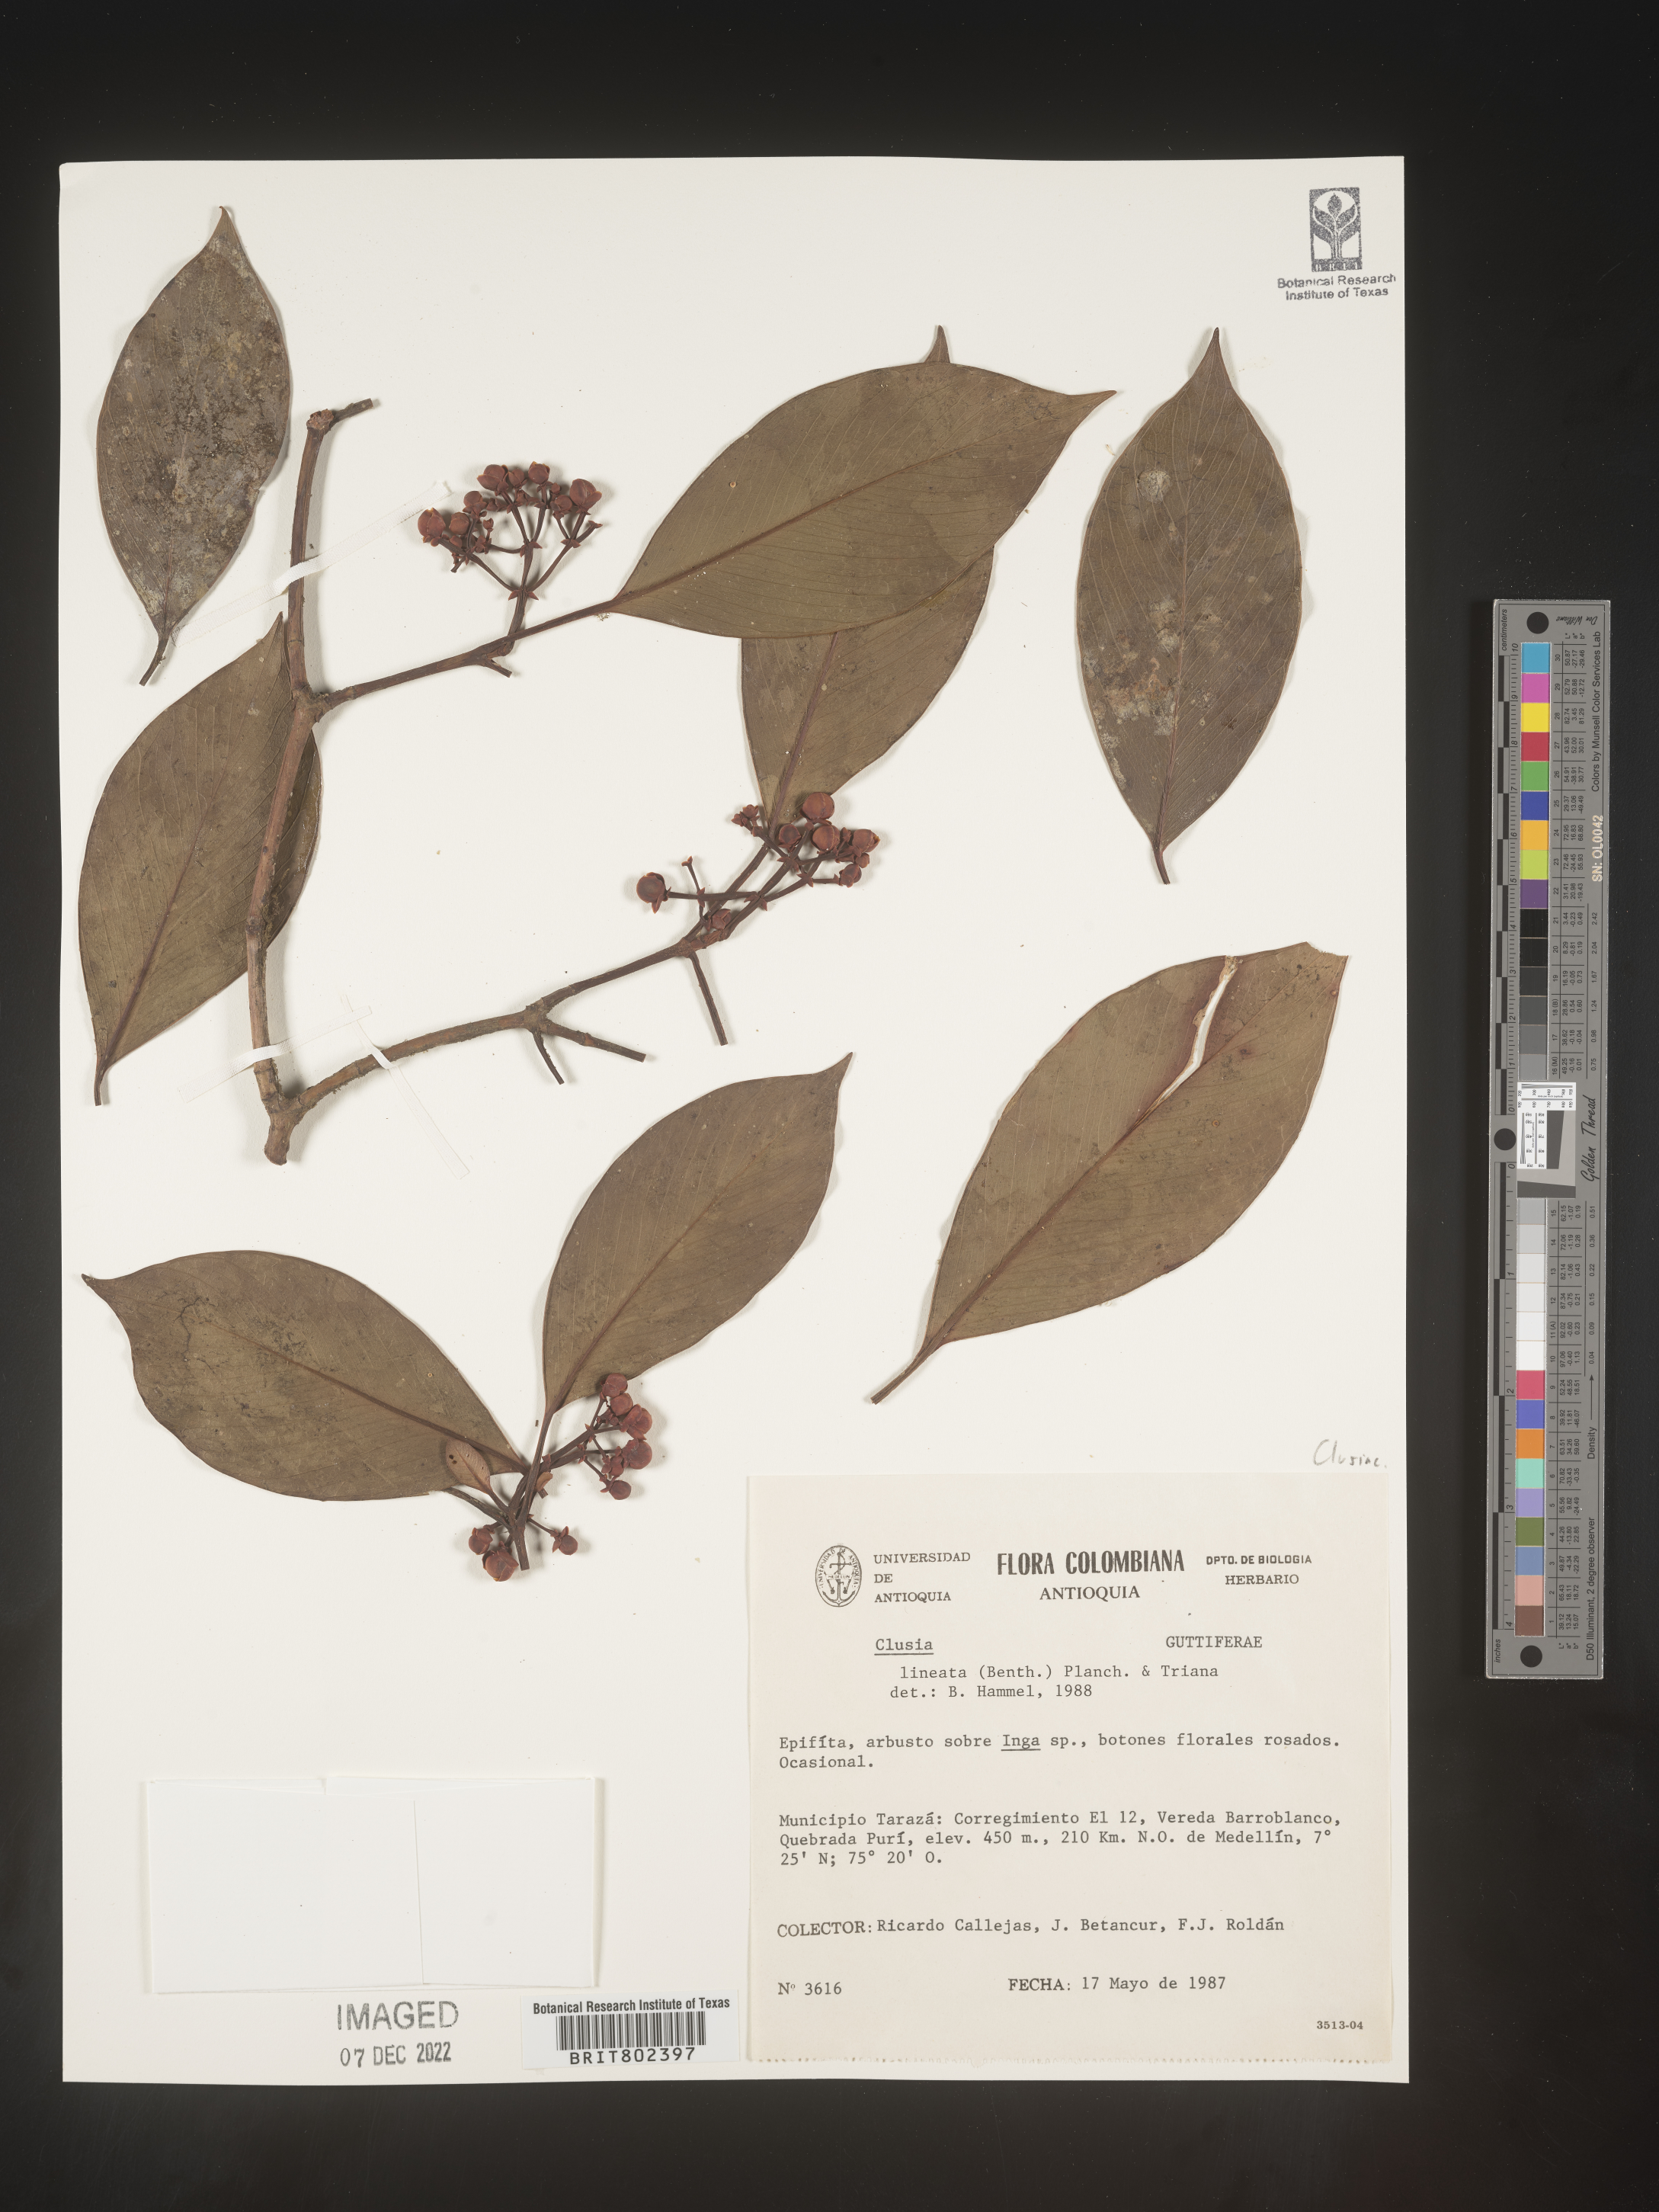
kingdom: Plantae
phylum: Tracheophyta
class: Magnoliopsida
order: Malpighiales
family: Clusiaceae
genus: Clusia
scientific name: Clusia lineata
